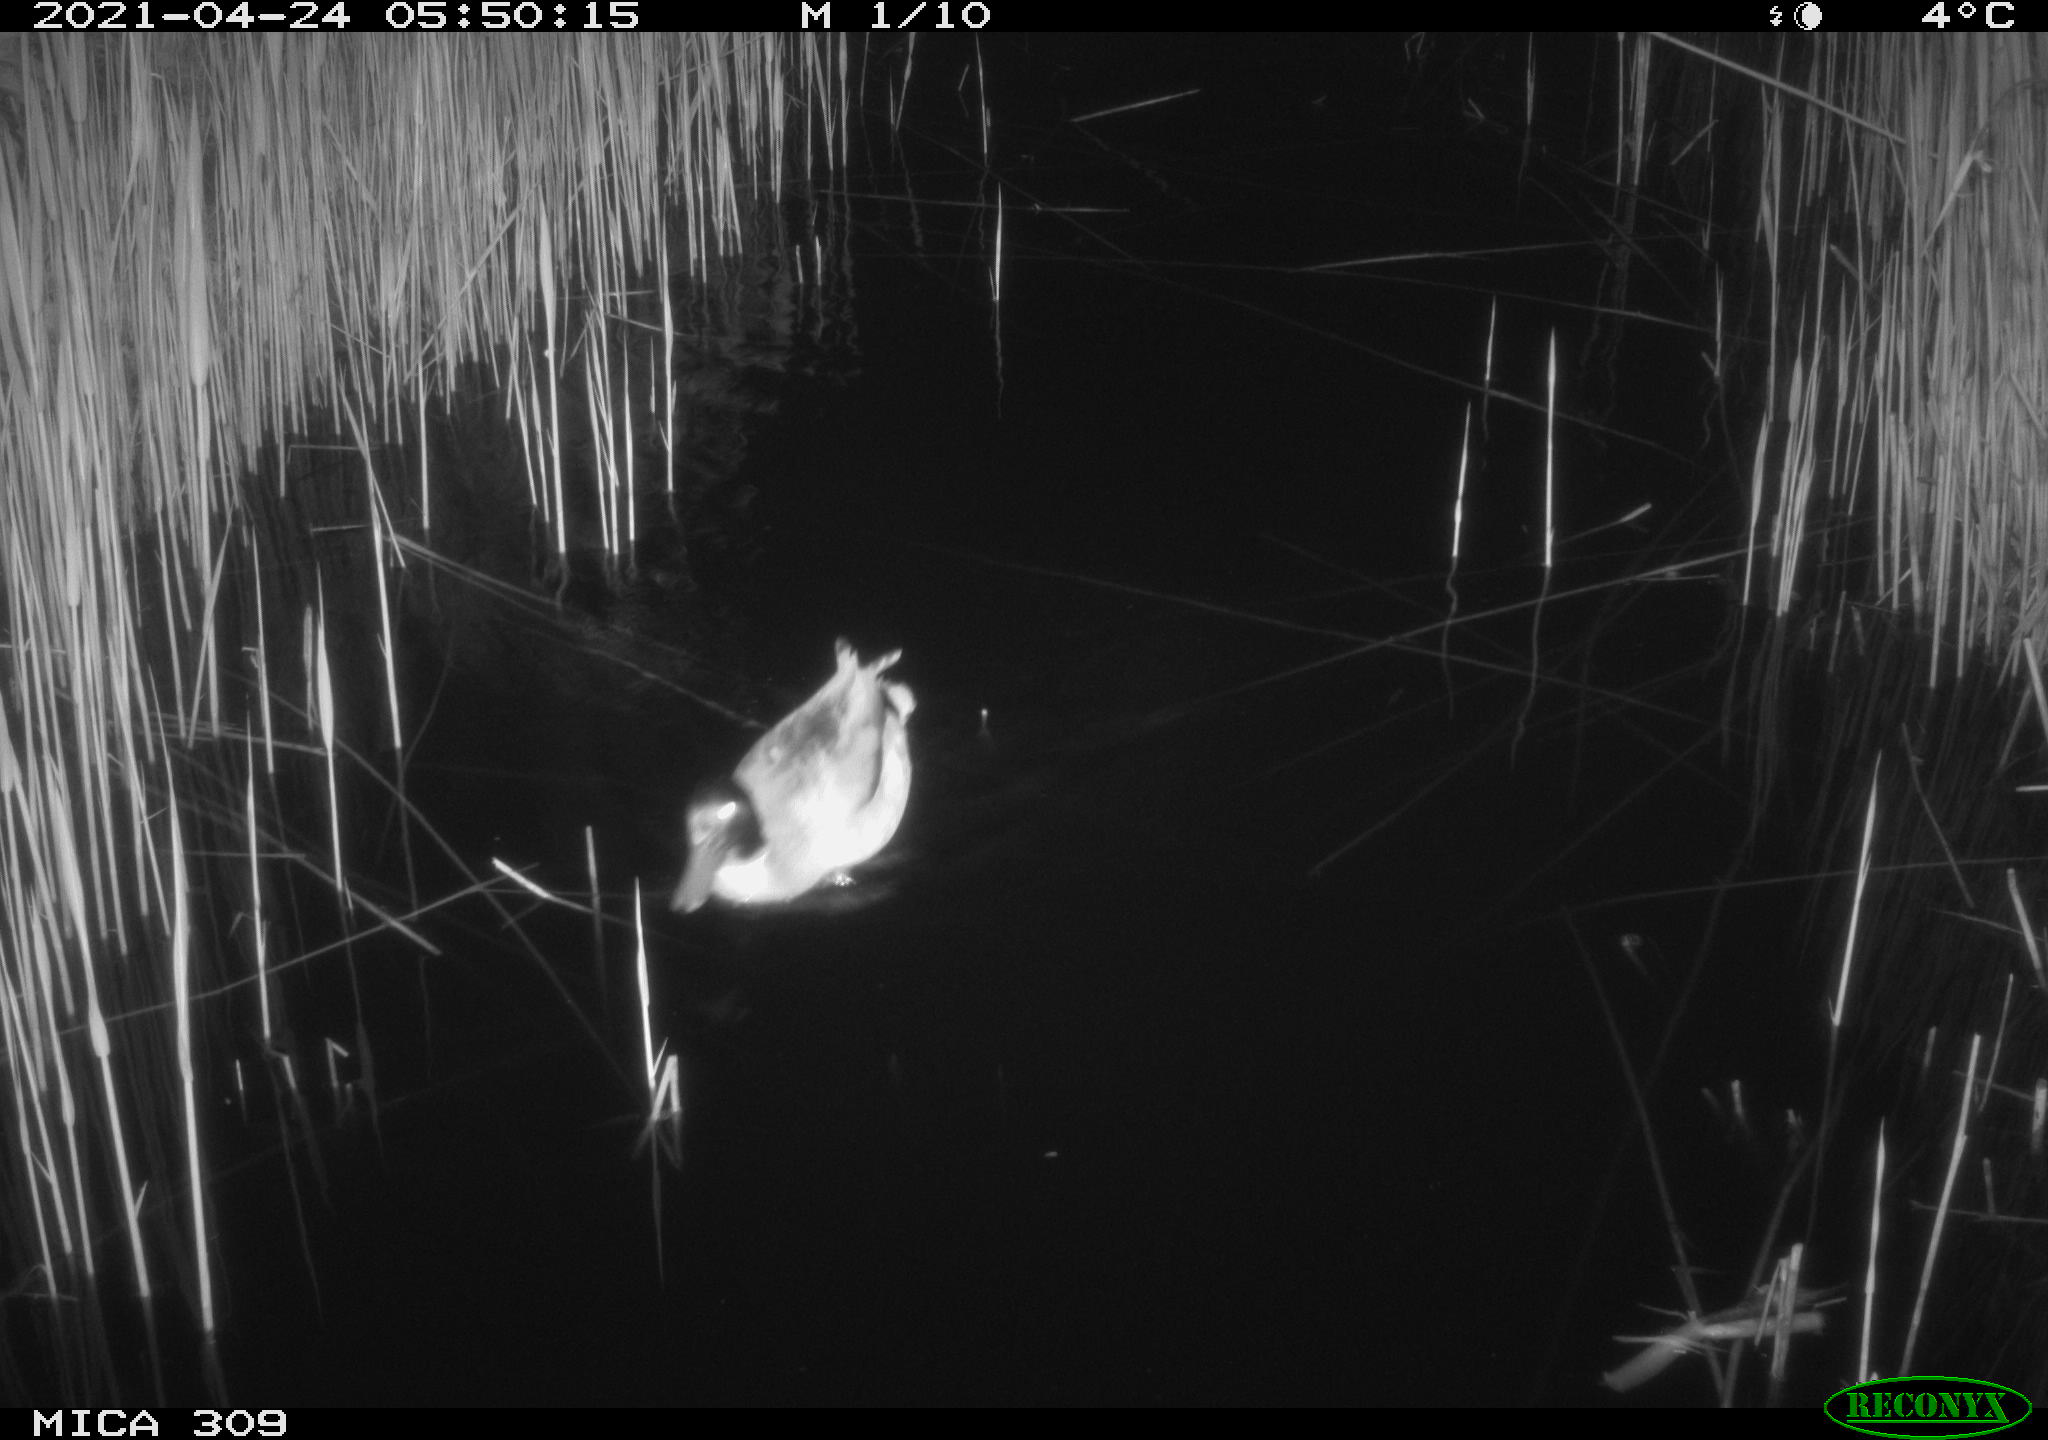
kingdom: Animalia
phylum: Chordata
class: Aves
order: Gruiformes
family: Rallidae
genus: Gallinula
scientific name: Gallinula chloropus
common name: Common moorhen
